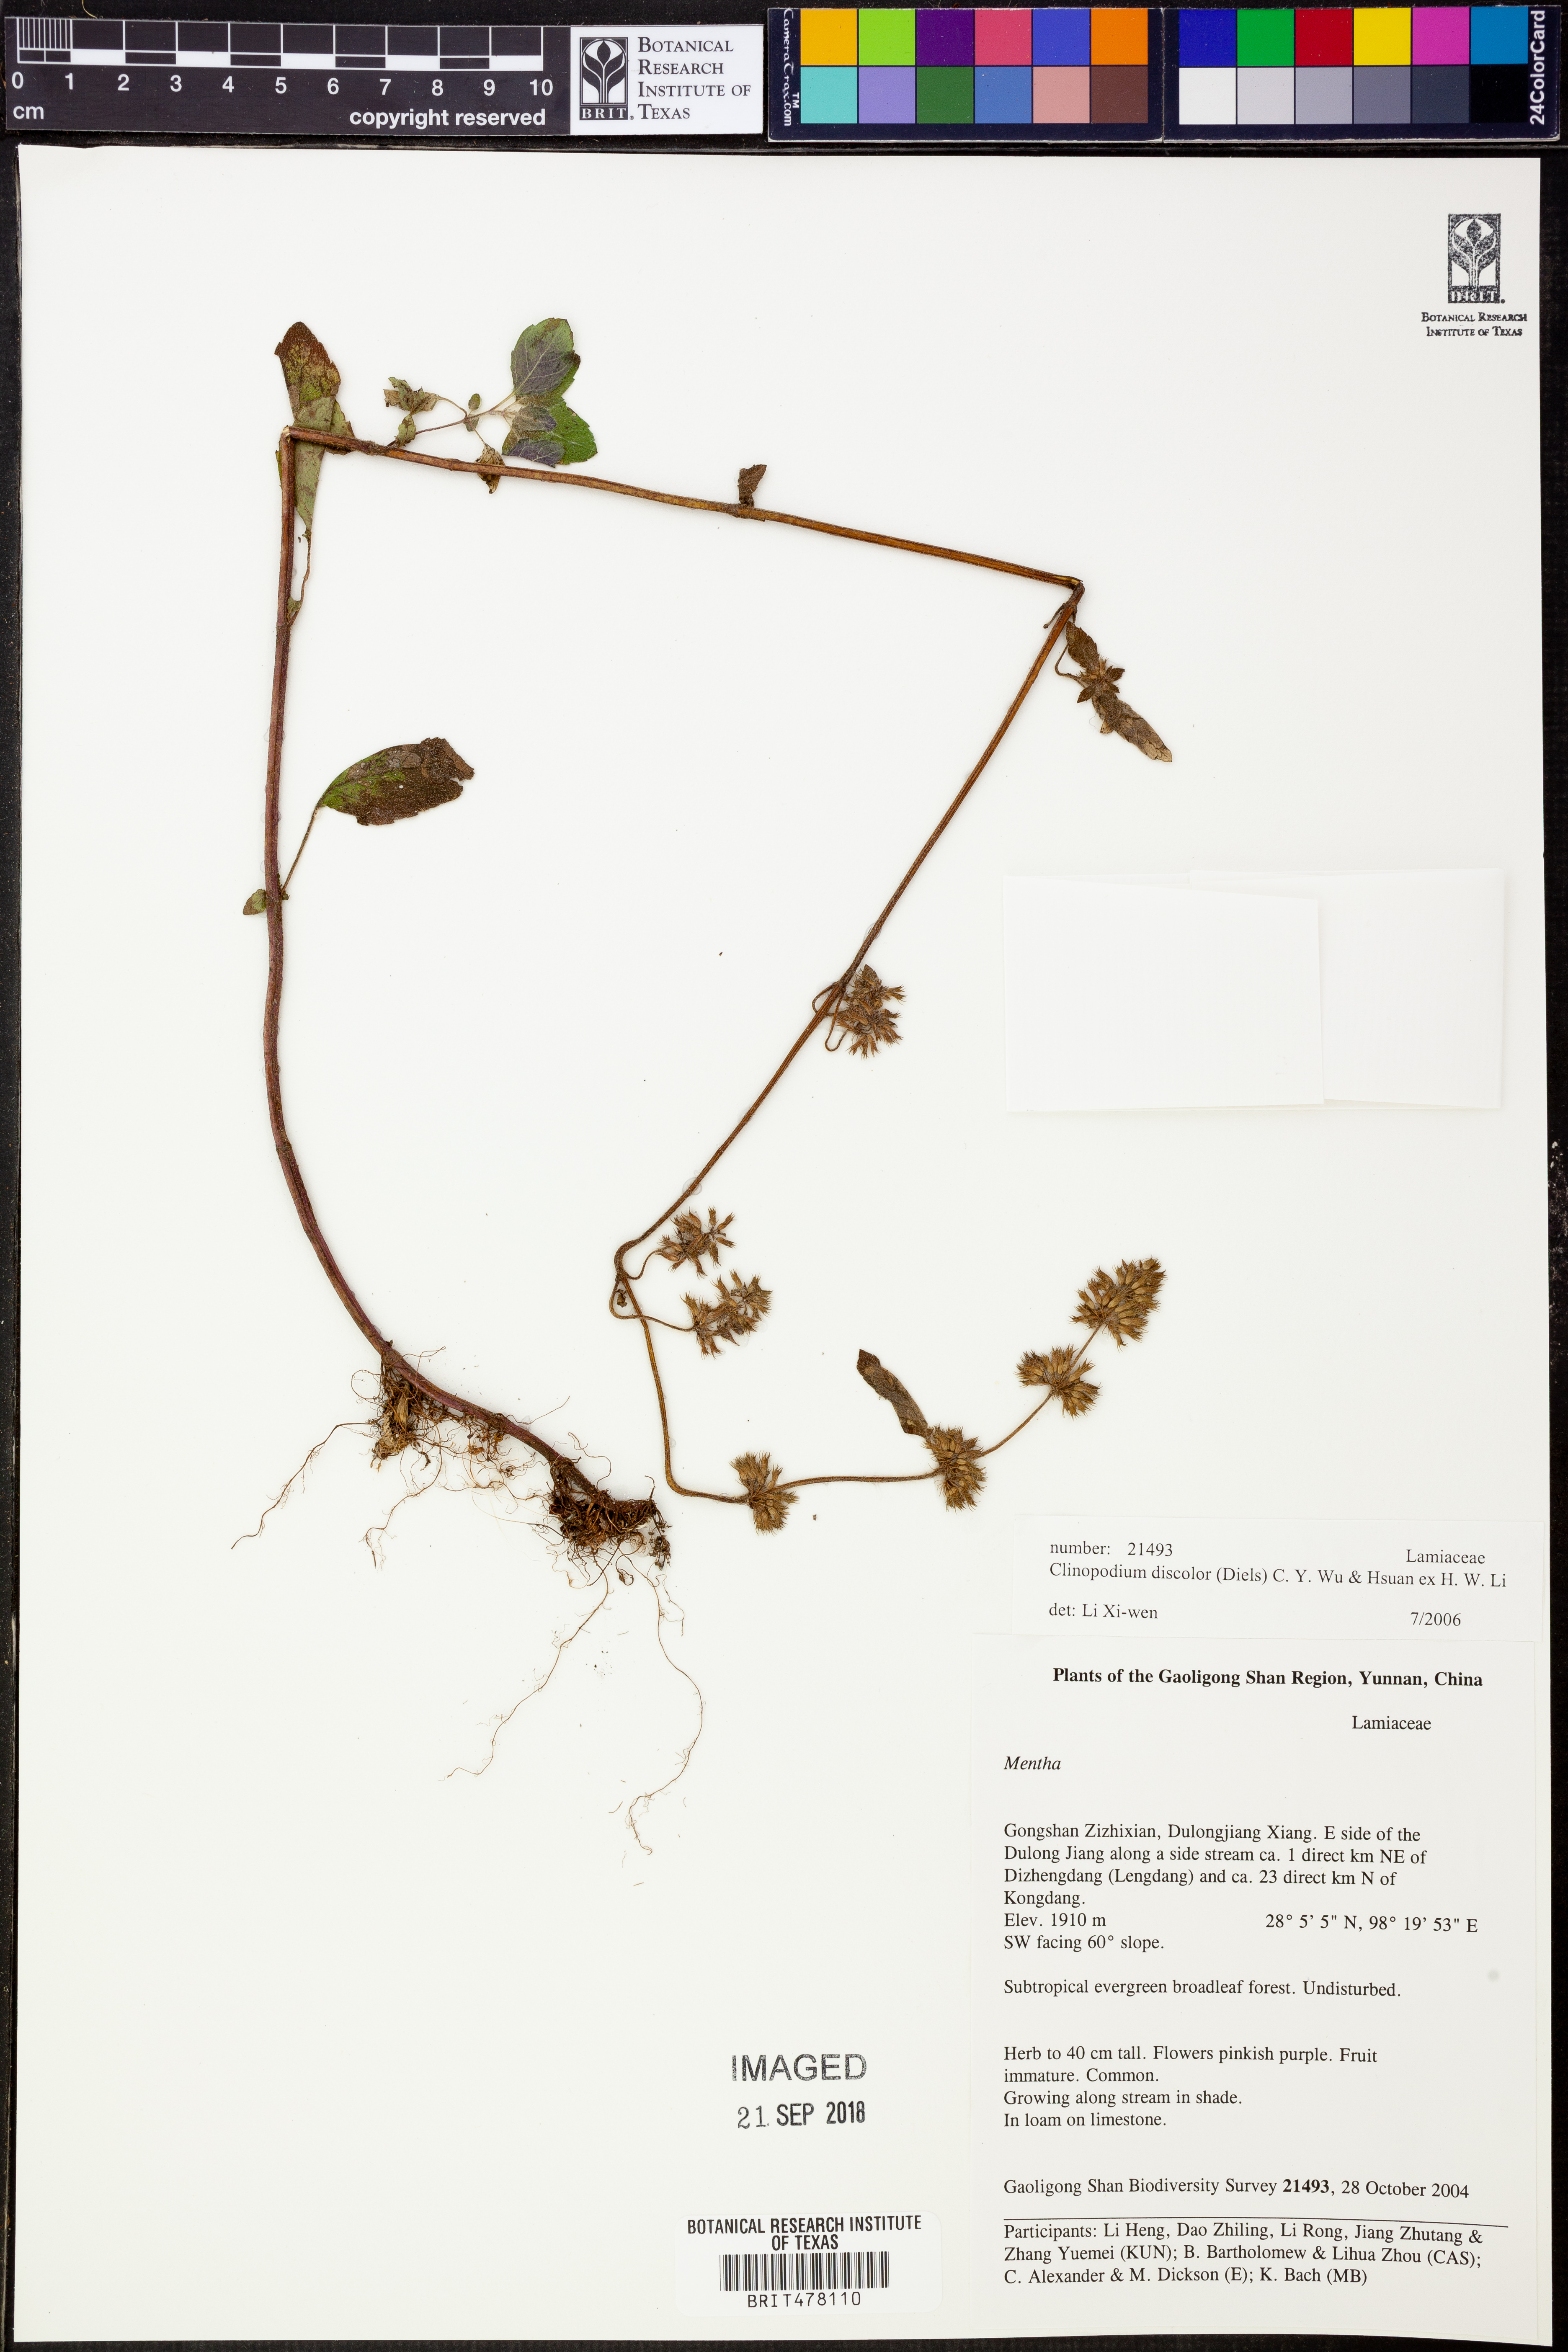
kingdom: Plantae
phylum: Tracheophyta
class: Magnoliopsida
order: Lamiales
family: Lamiaceae
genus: Clinopodium
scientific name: Clinopodium discolor
